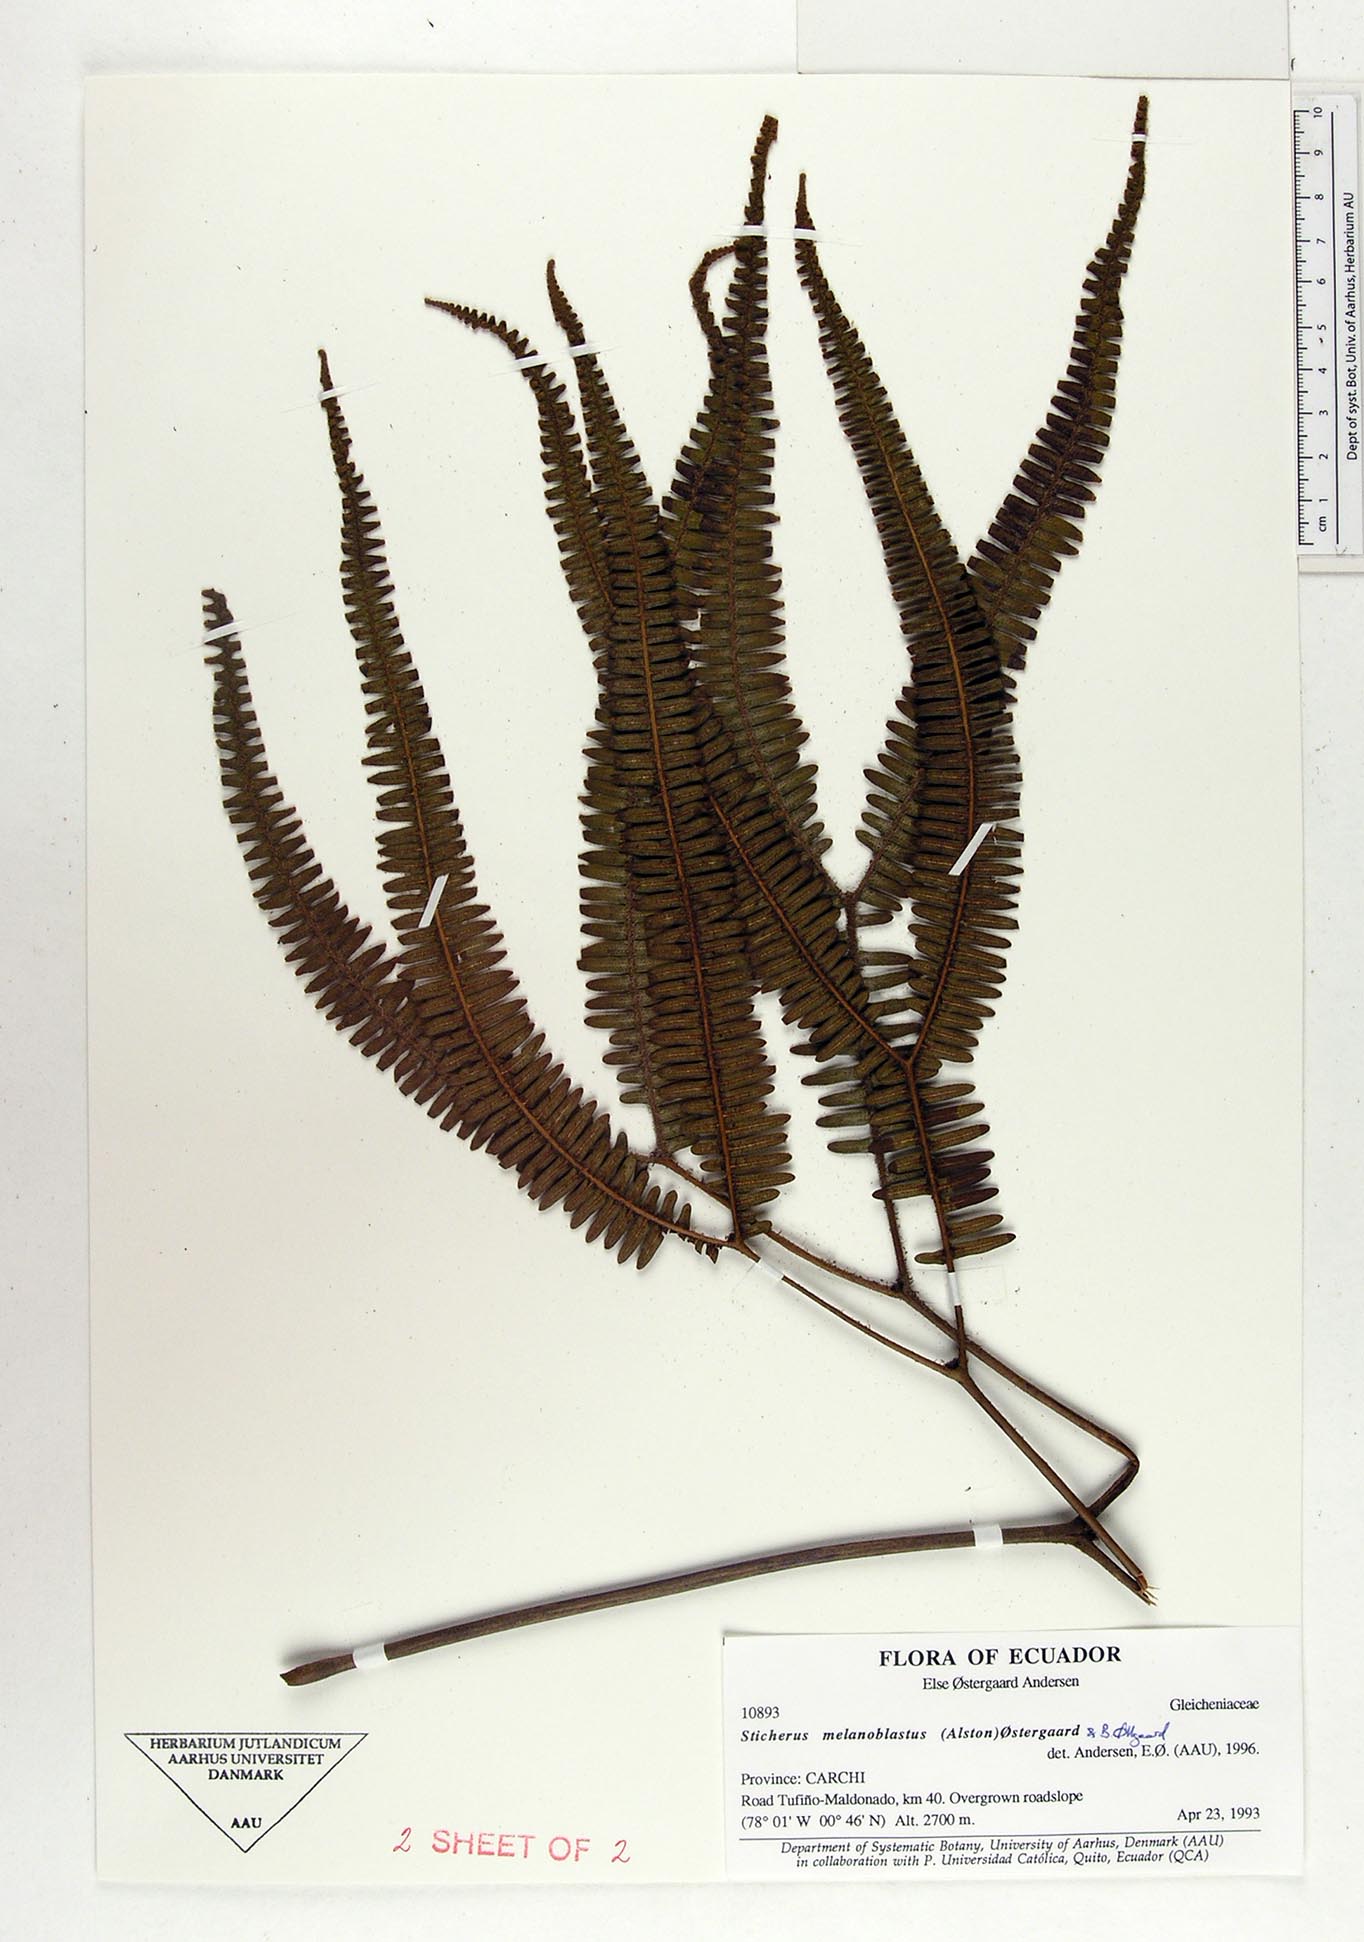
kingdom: Plantae
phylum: Tracheophyta
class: Polypodiopsida
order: Gleicheniales
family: Gleicheniaceae
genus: Sticherus
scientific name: Sticherus melanoblastus
